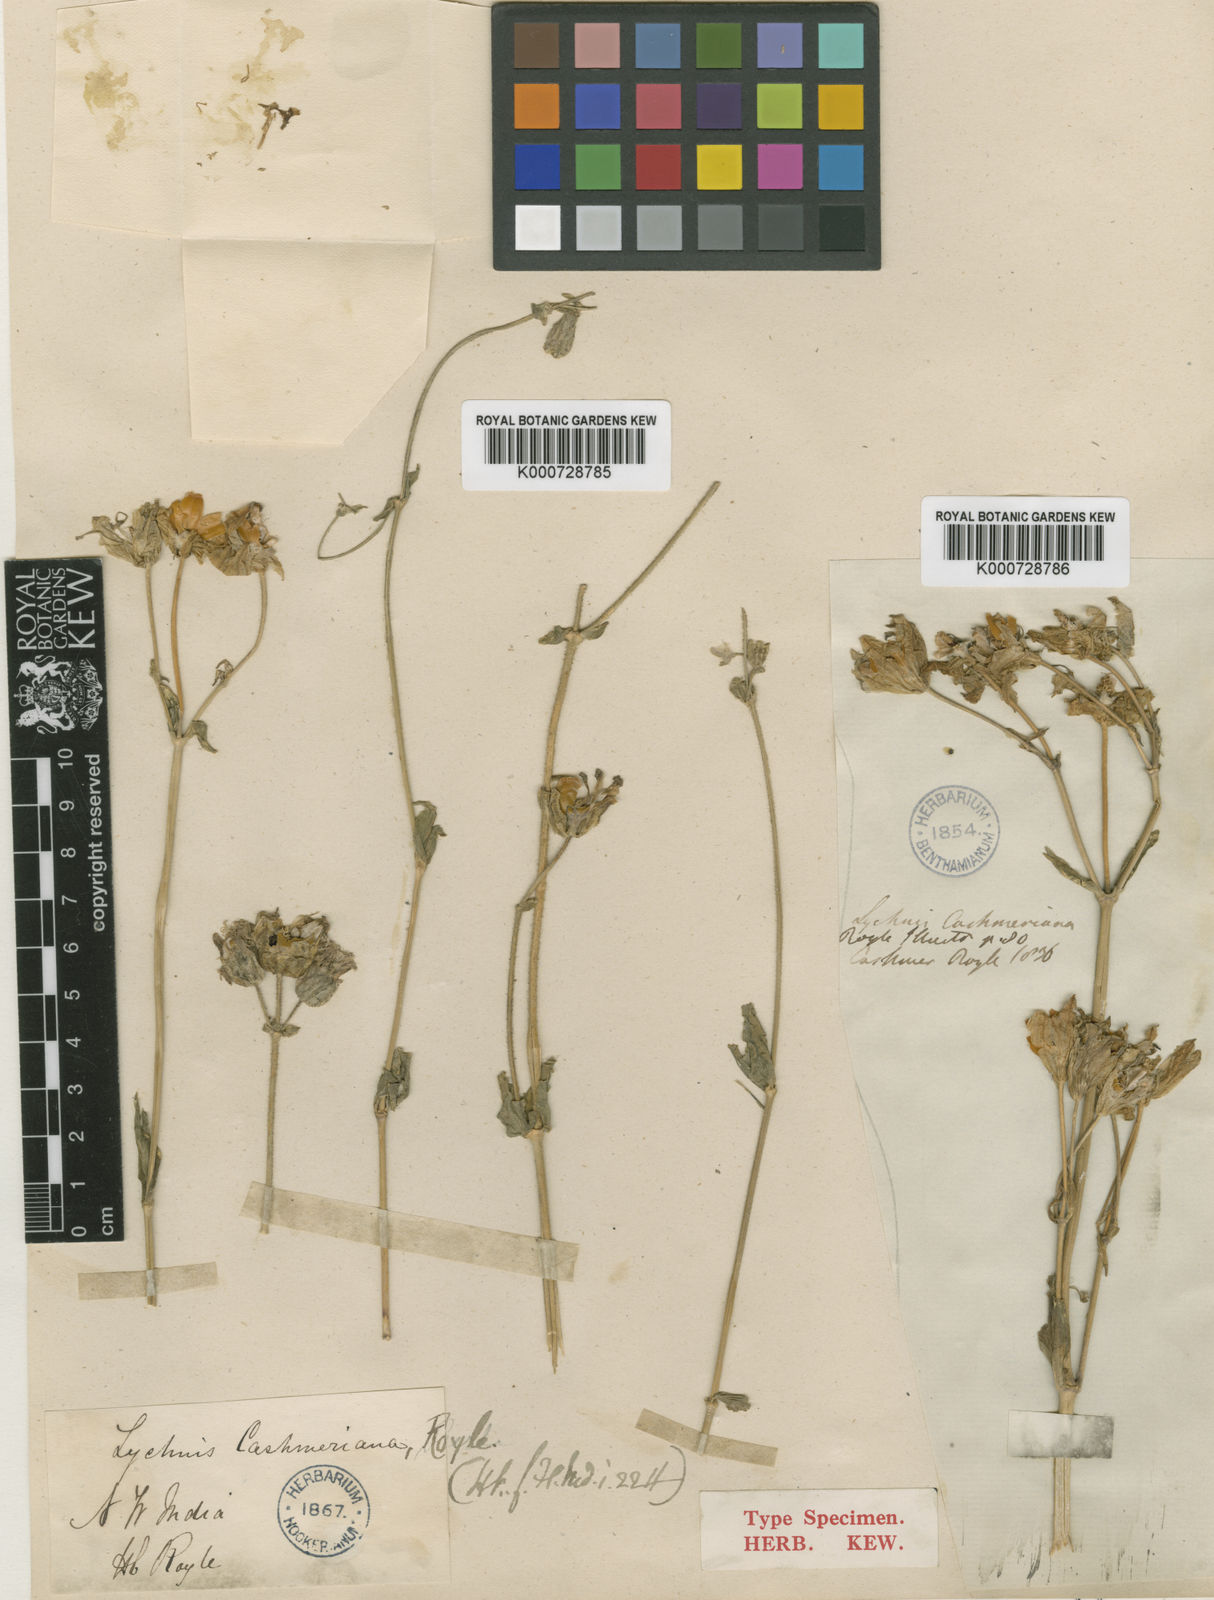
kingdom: Plantae
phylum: Tracheophyta
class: Magnoliopsida
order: Caryophyllales
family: Caryophyllaceae
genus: Silene
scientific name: Silene cashmeriana
